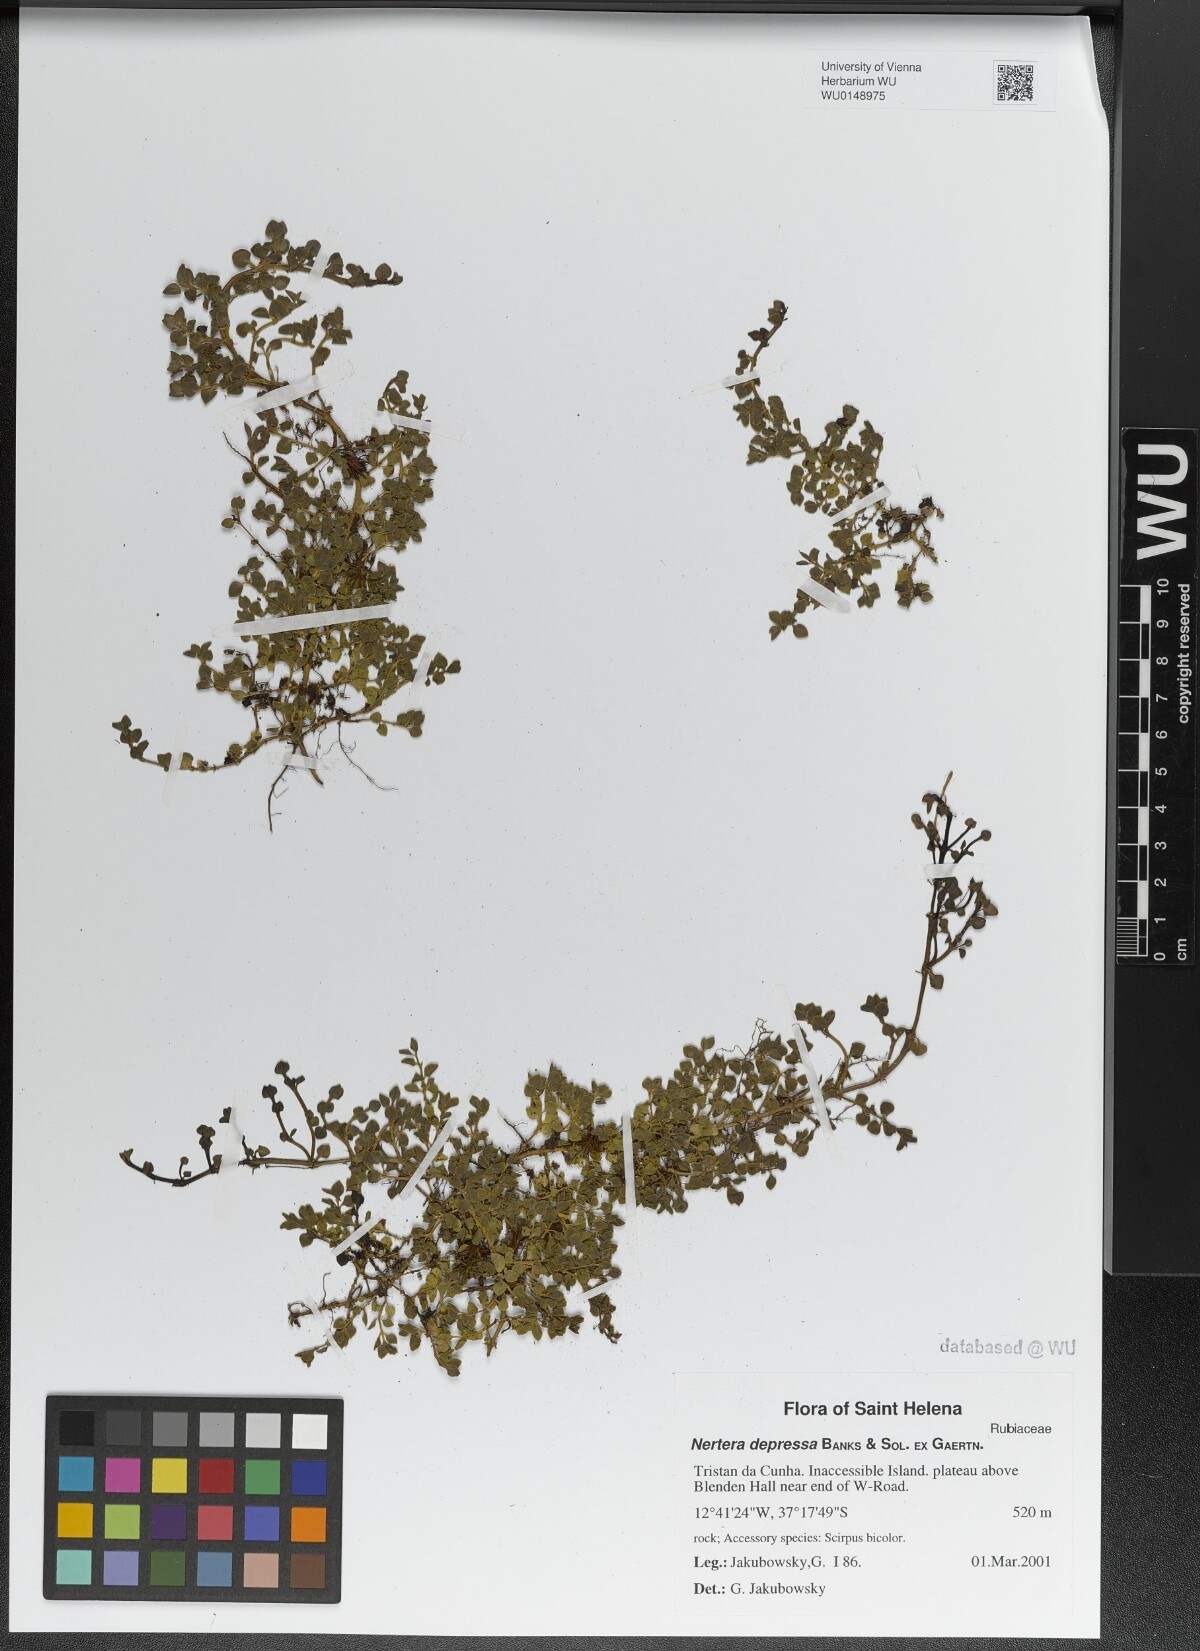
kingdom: Plantae
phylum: Tracheophyta
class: Magnoliopsida
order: Gentianales
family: Rubiaceae
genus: Nertera
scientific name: Nertera granadensis
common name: Beadplant
